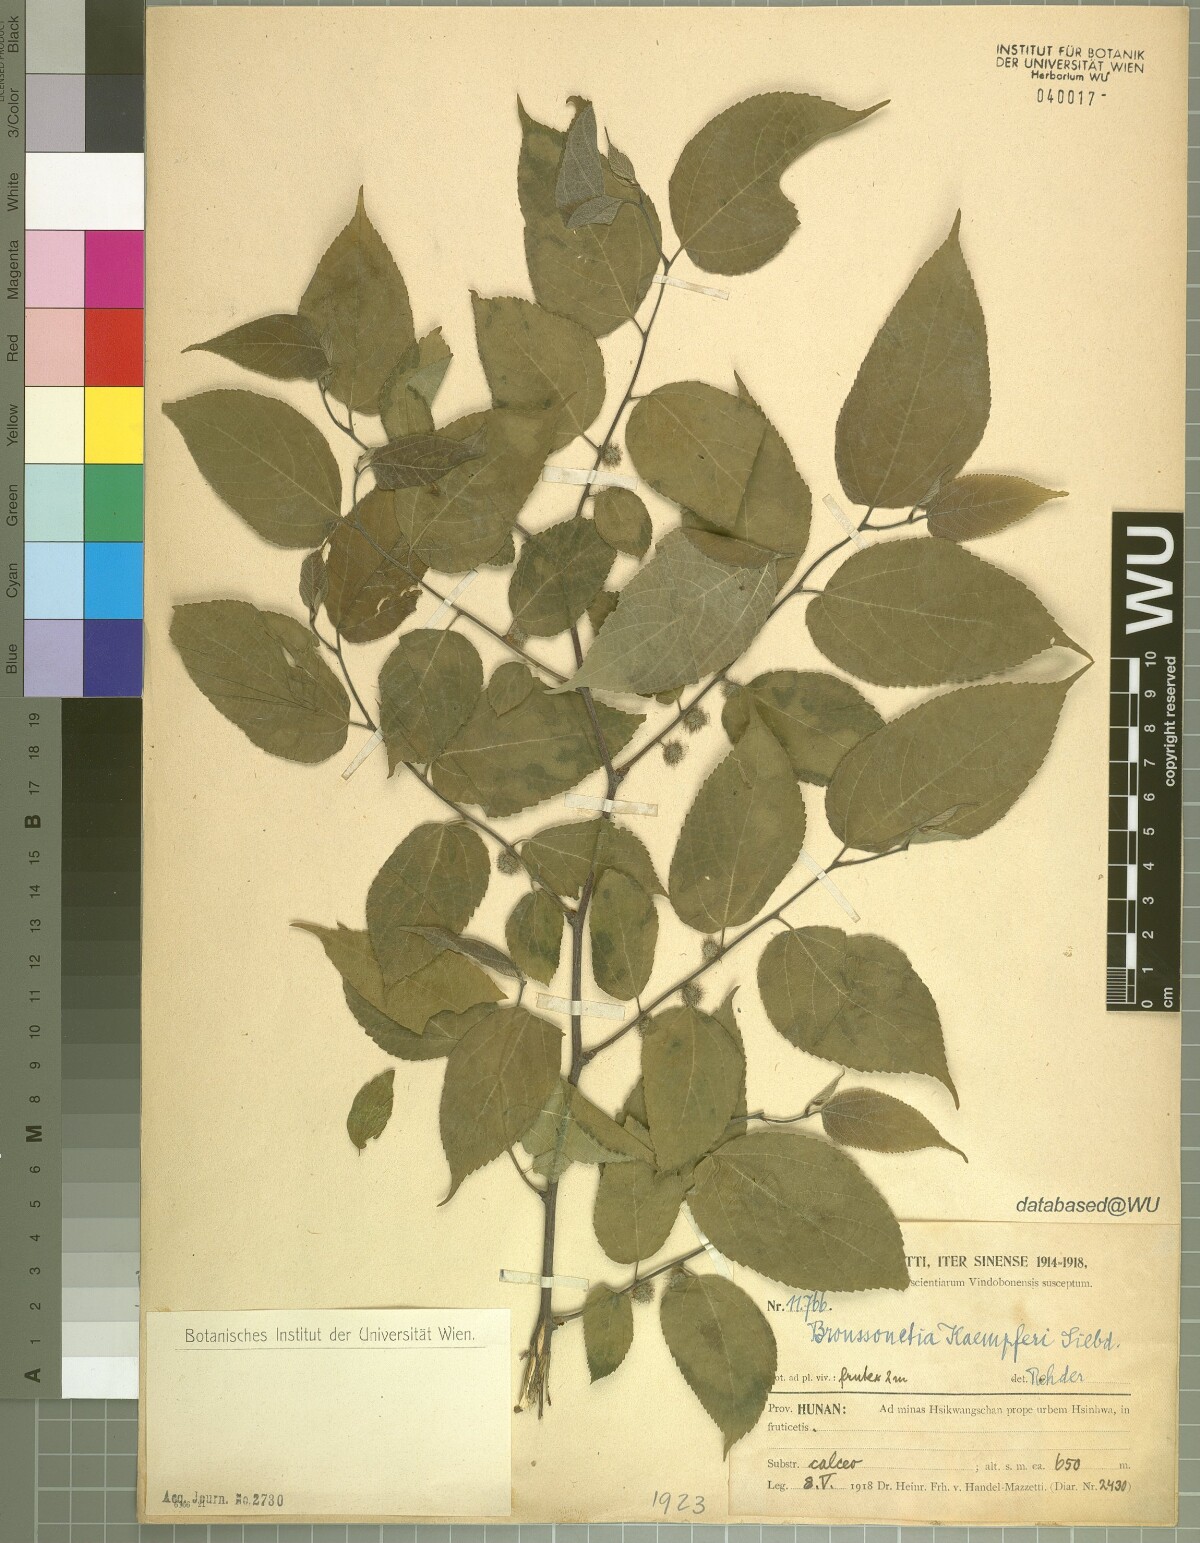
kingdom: Plantae
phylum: Tracheophyta
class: Magnoliopsida
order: Rosales
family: Moraceae
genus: Broussonetia
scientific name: Broussonetia kaempferi
